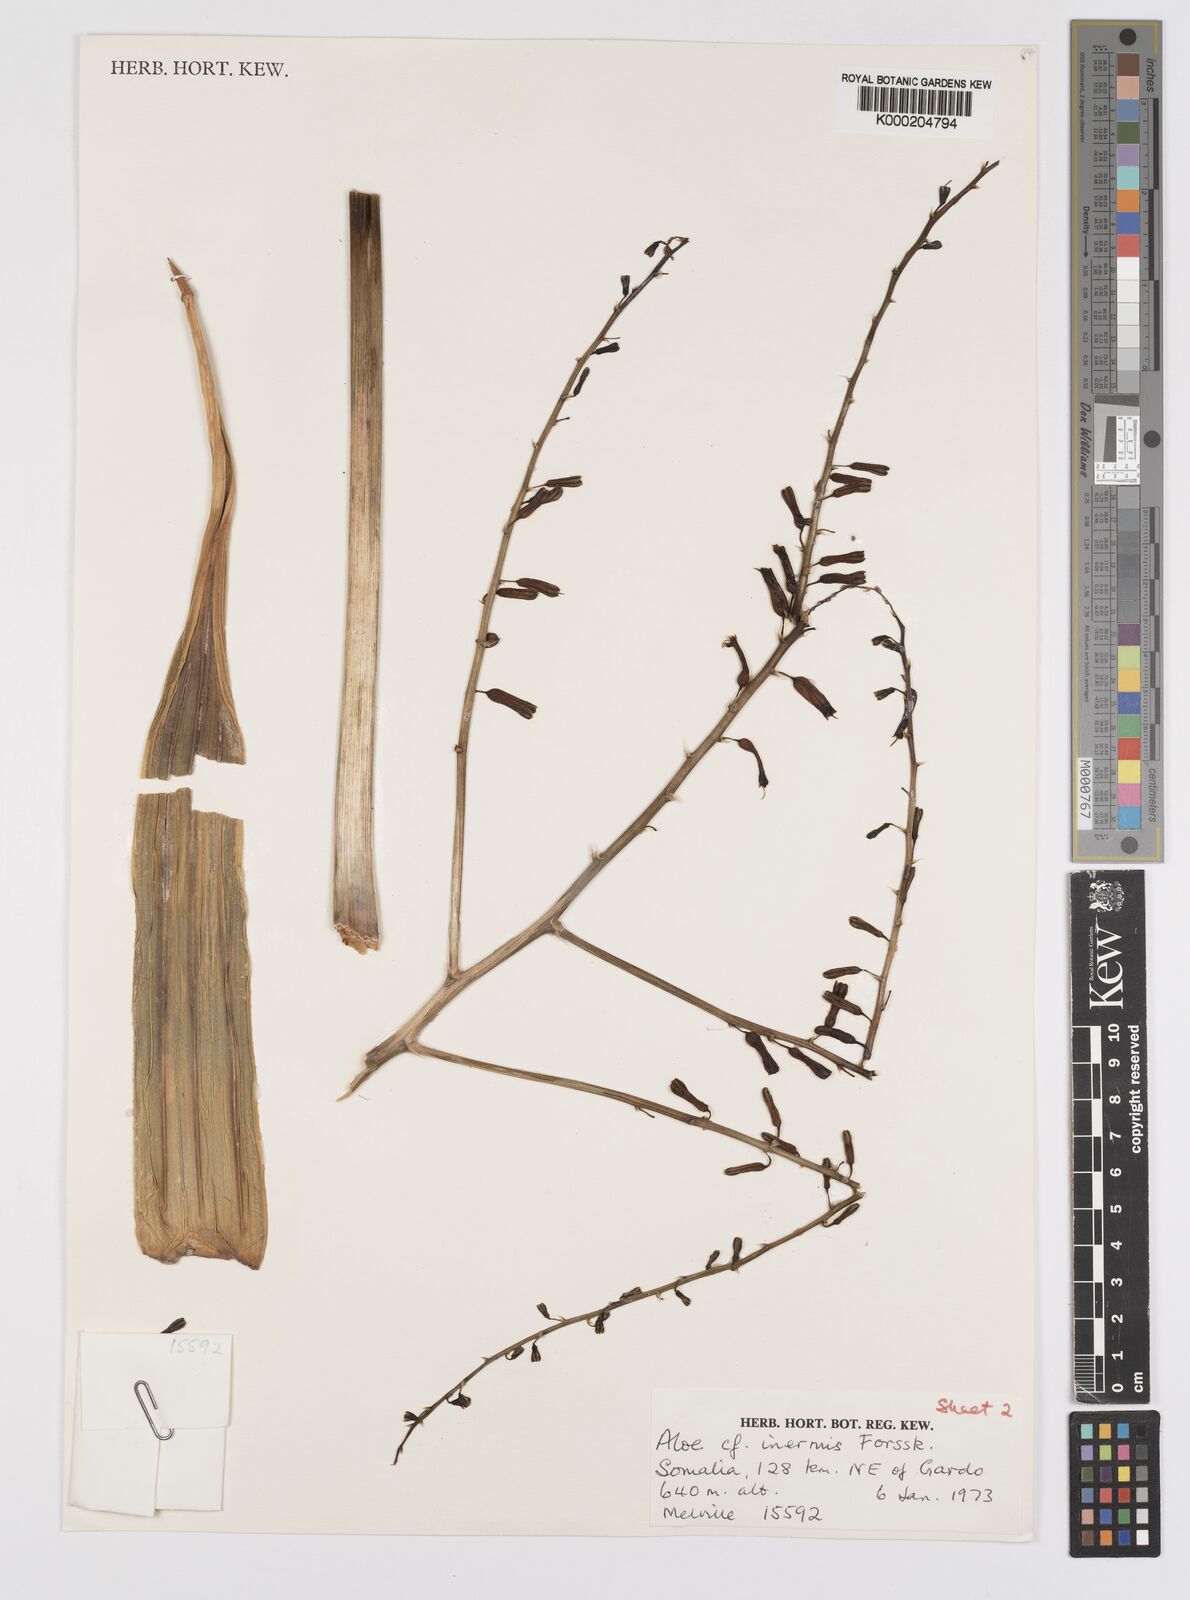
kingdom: Plantae
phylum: Tracheophyta
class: Liliopsida
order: Asparagales
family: Asphodelaceae
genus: Aloe
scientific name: Aloe brunneostriata
